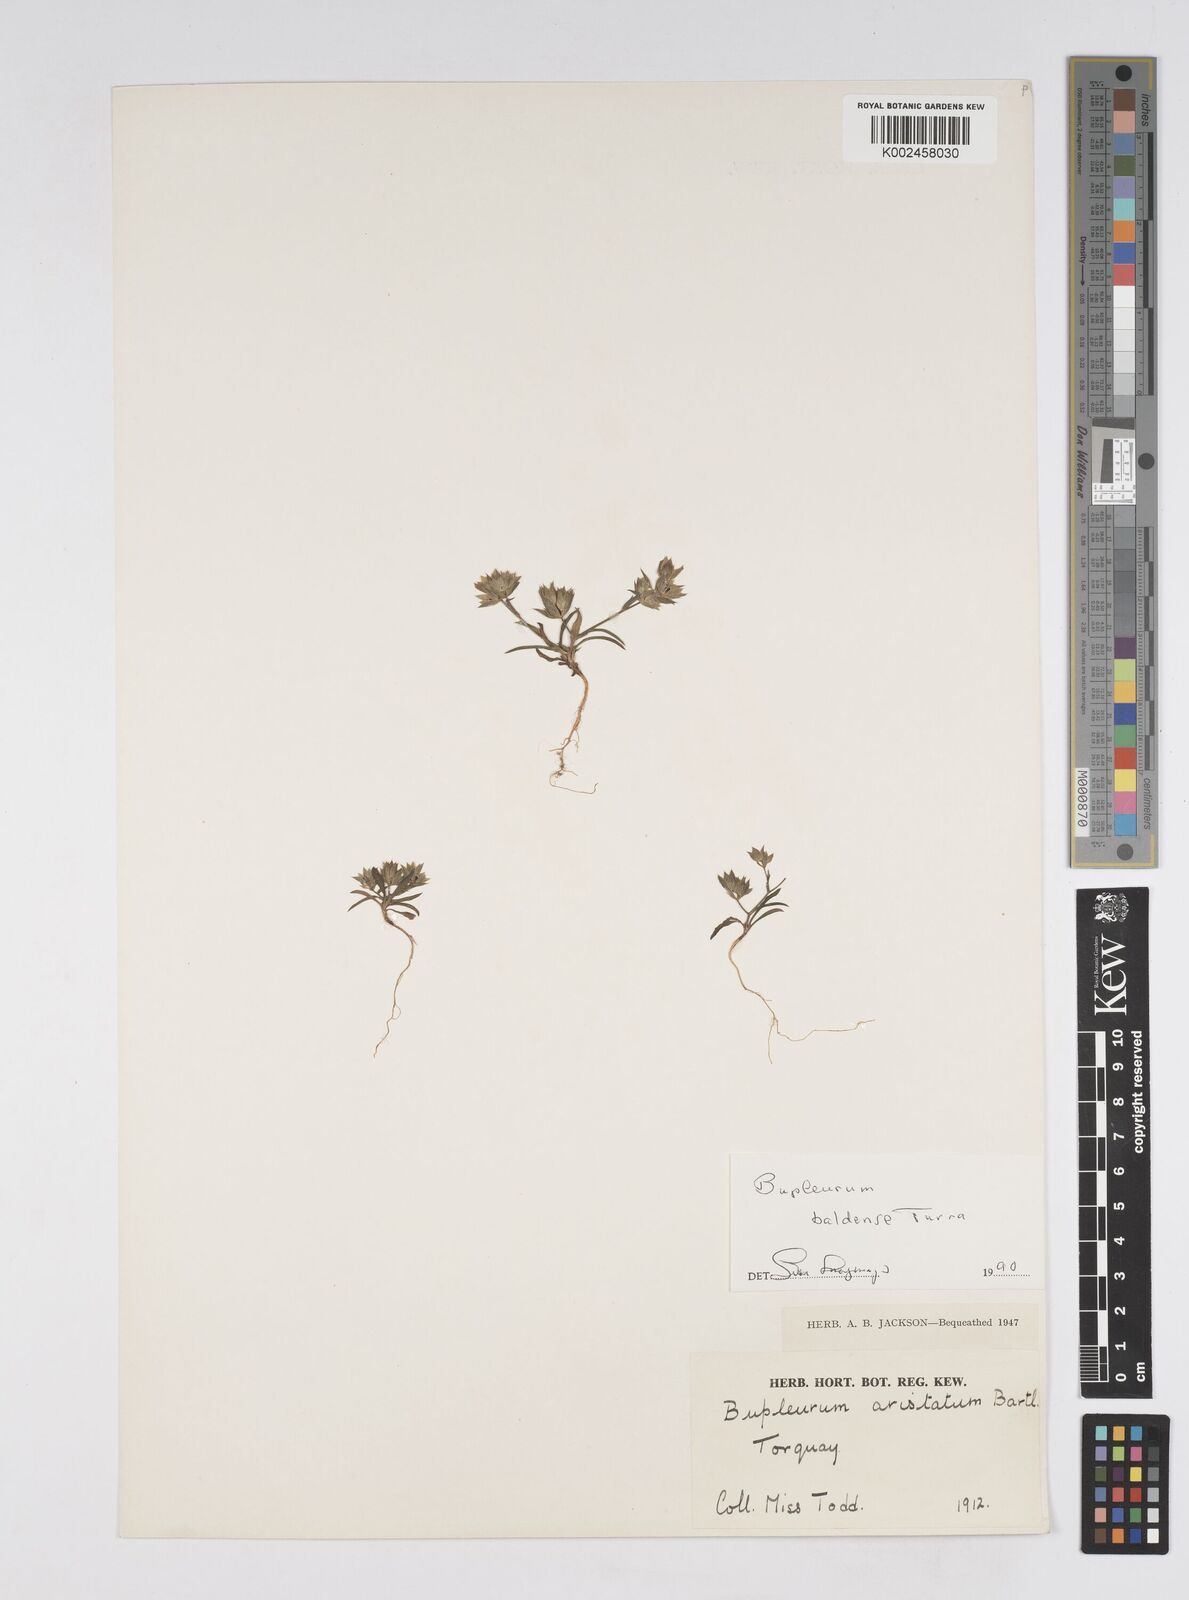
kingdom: Plantae
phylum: Tracheophyta
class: Magnoliopsida
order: Apiales
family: Apiaceae
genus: Bupleurum
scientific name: Bupleurum baldense
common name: Small hare's-ear
